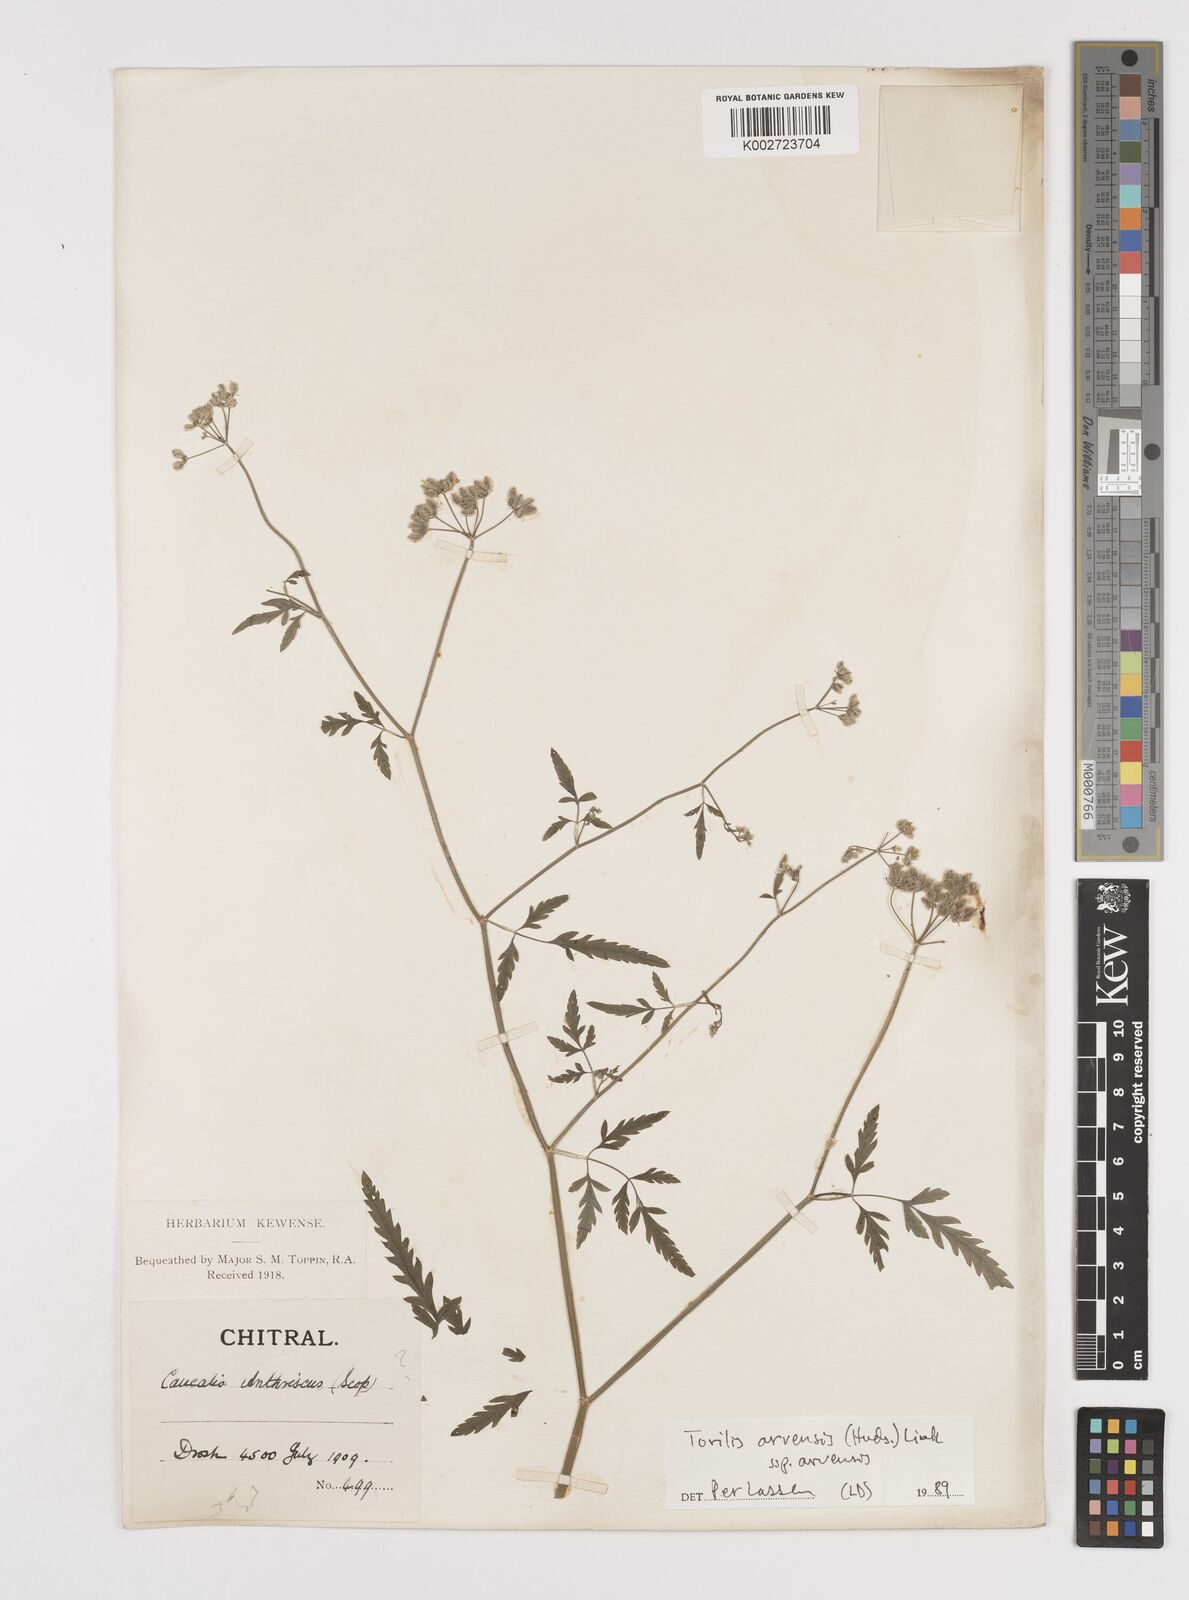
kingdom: Plantae
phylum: Tracheophyta
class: Magnoliopsida
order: Apiales
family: Apiaceae
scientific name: Apiaceae
